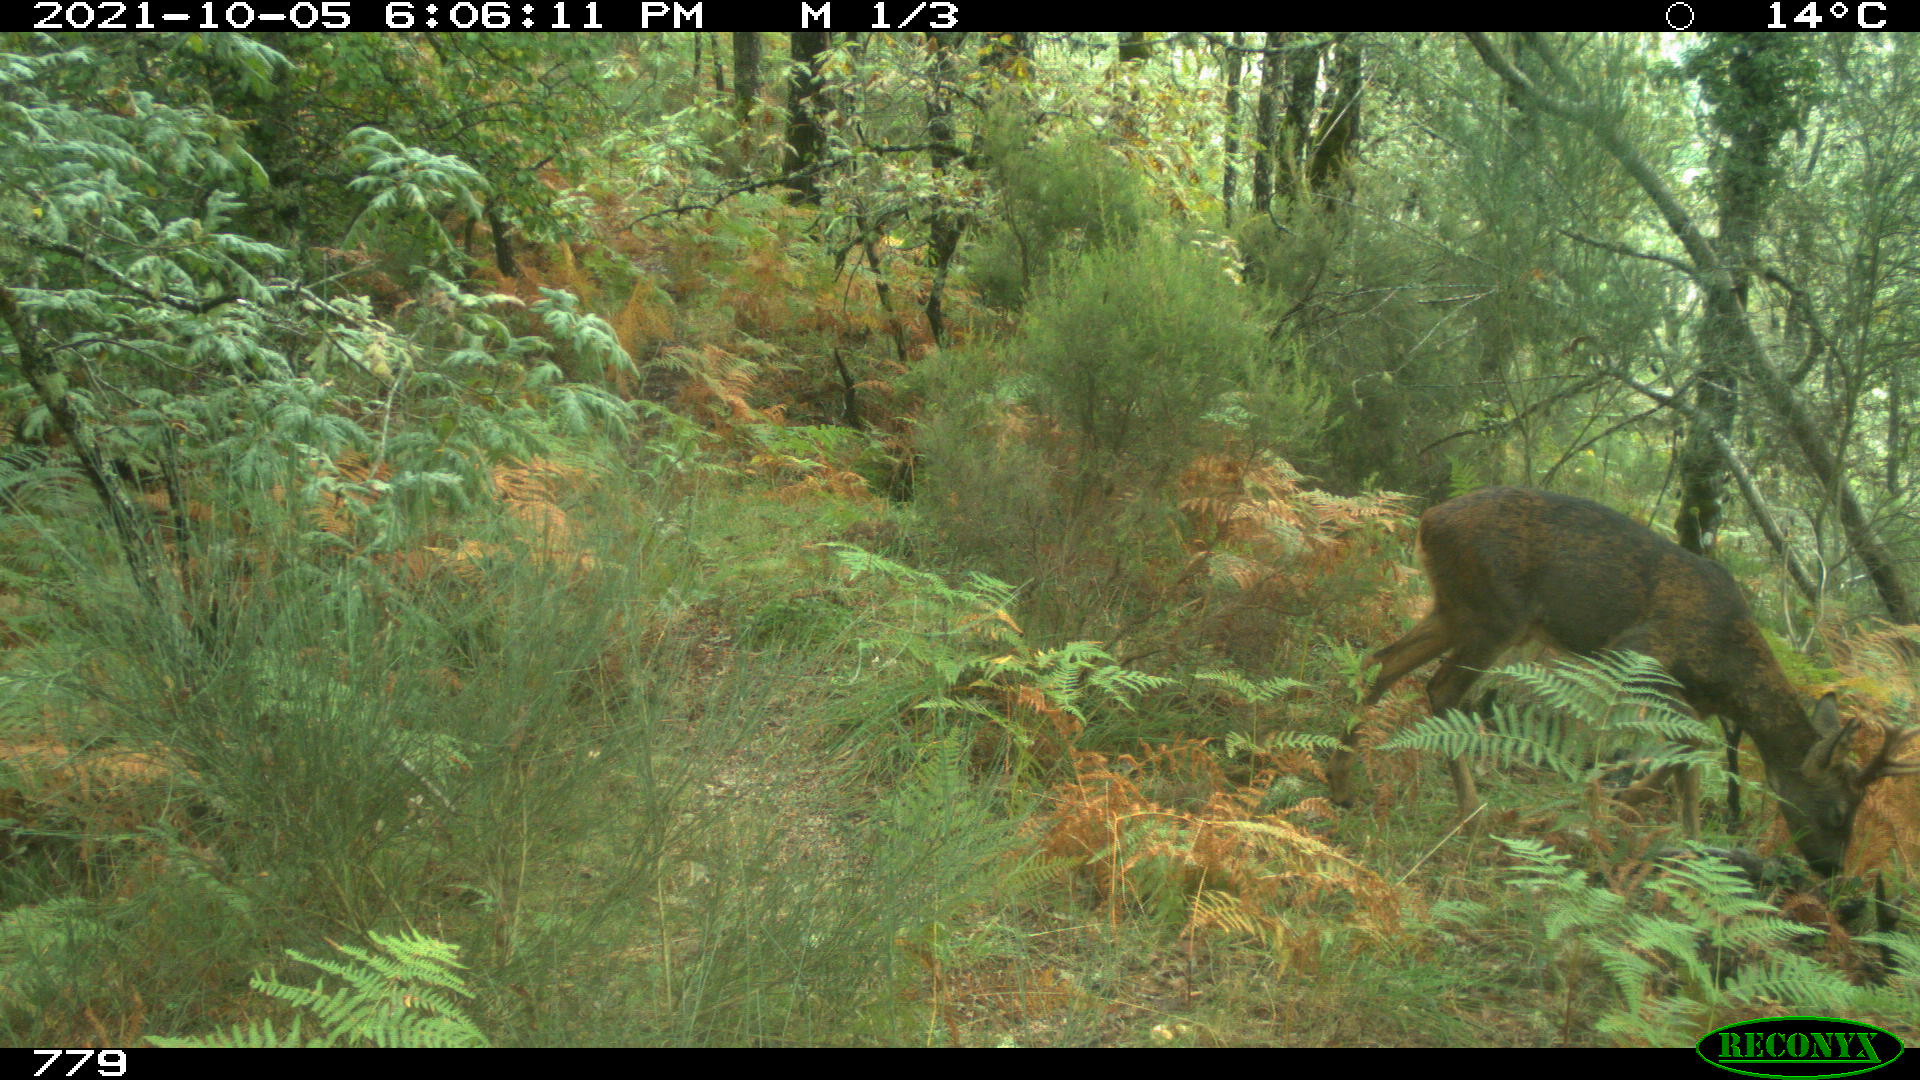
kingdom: Animalia
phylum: Chordata
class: Mammalia
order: Artiodactyla
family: Cervidae
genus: Capreolus
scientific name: Capreolus capreolus
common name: Western roe deer
